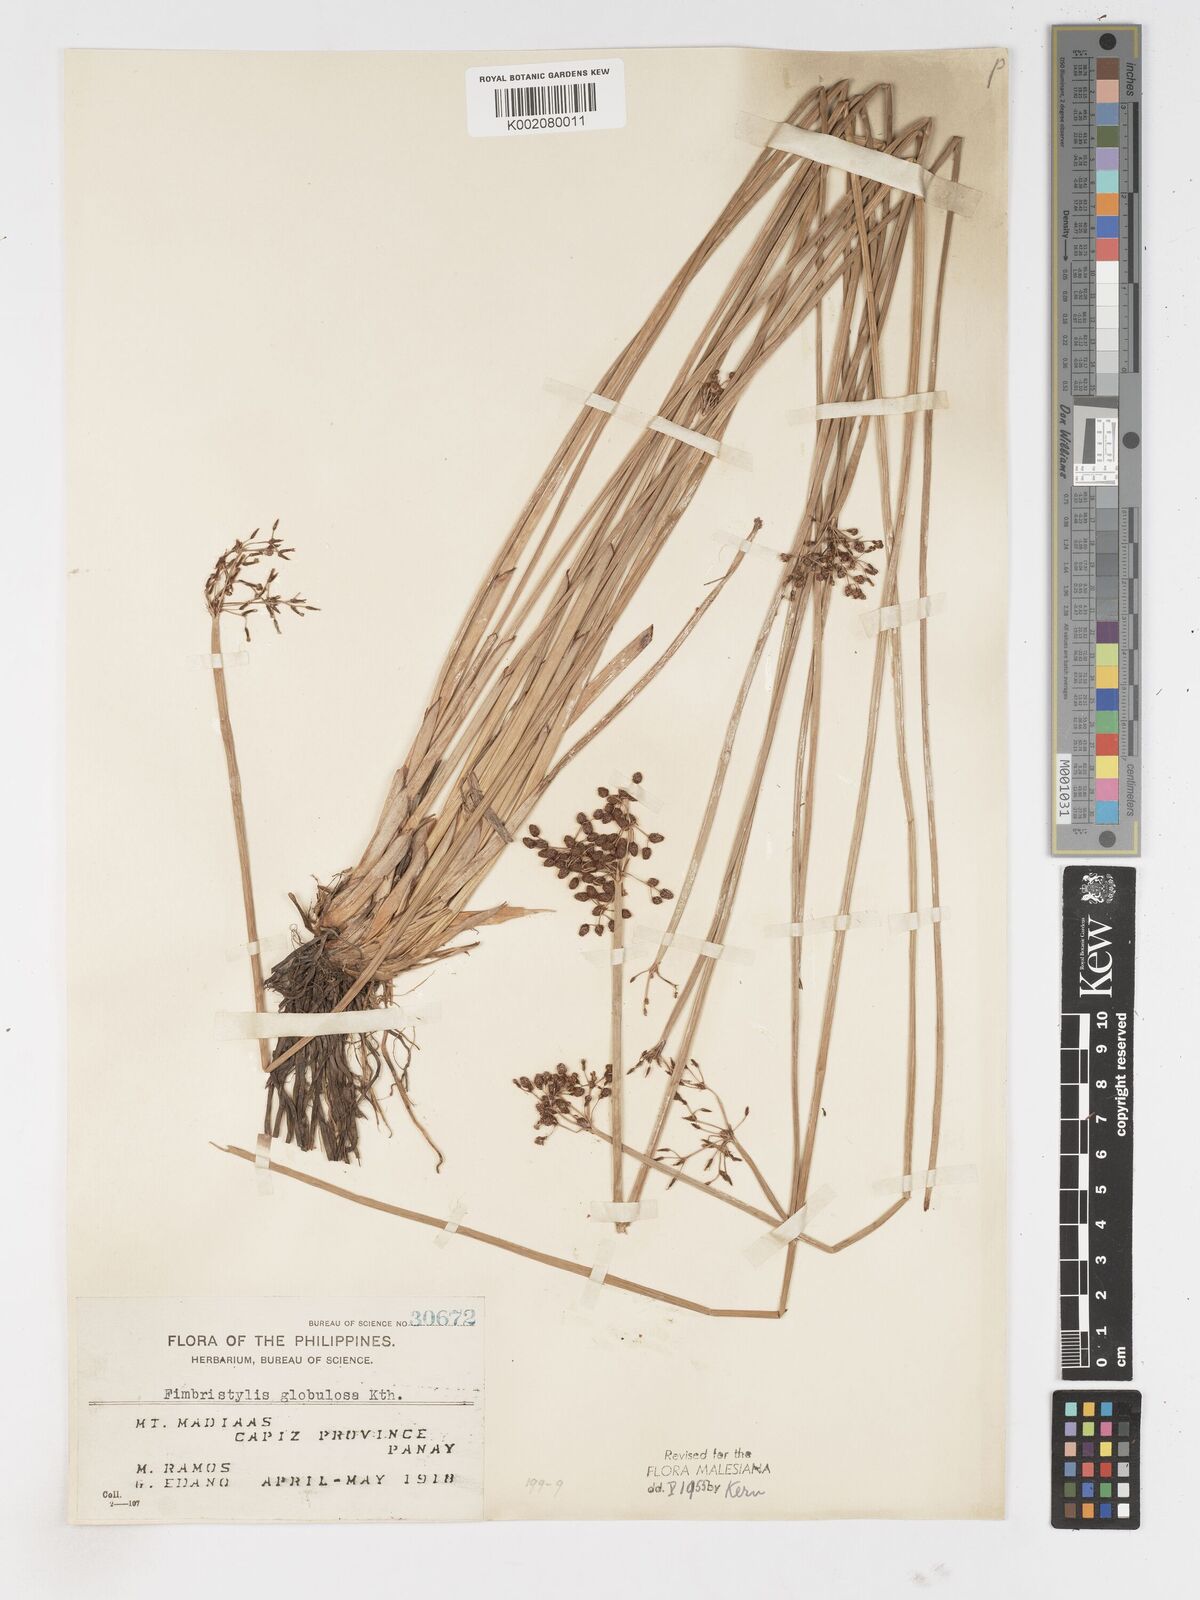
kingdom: Plantae
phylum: Tracheophyta
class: Liliopsida
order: Poales
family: Cyperaceae
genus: Fimbristylis
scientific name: Fimbristylis umbellaris
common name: Globular fimbristylis
